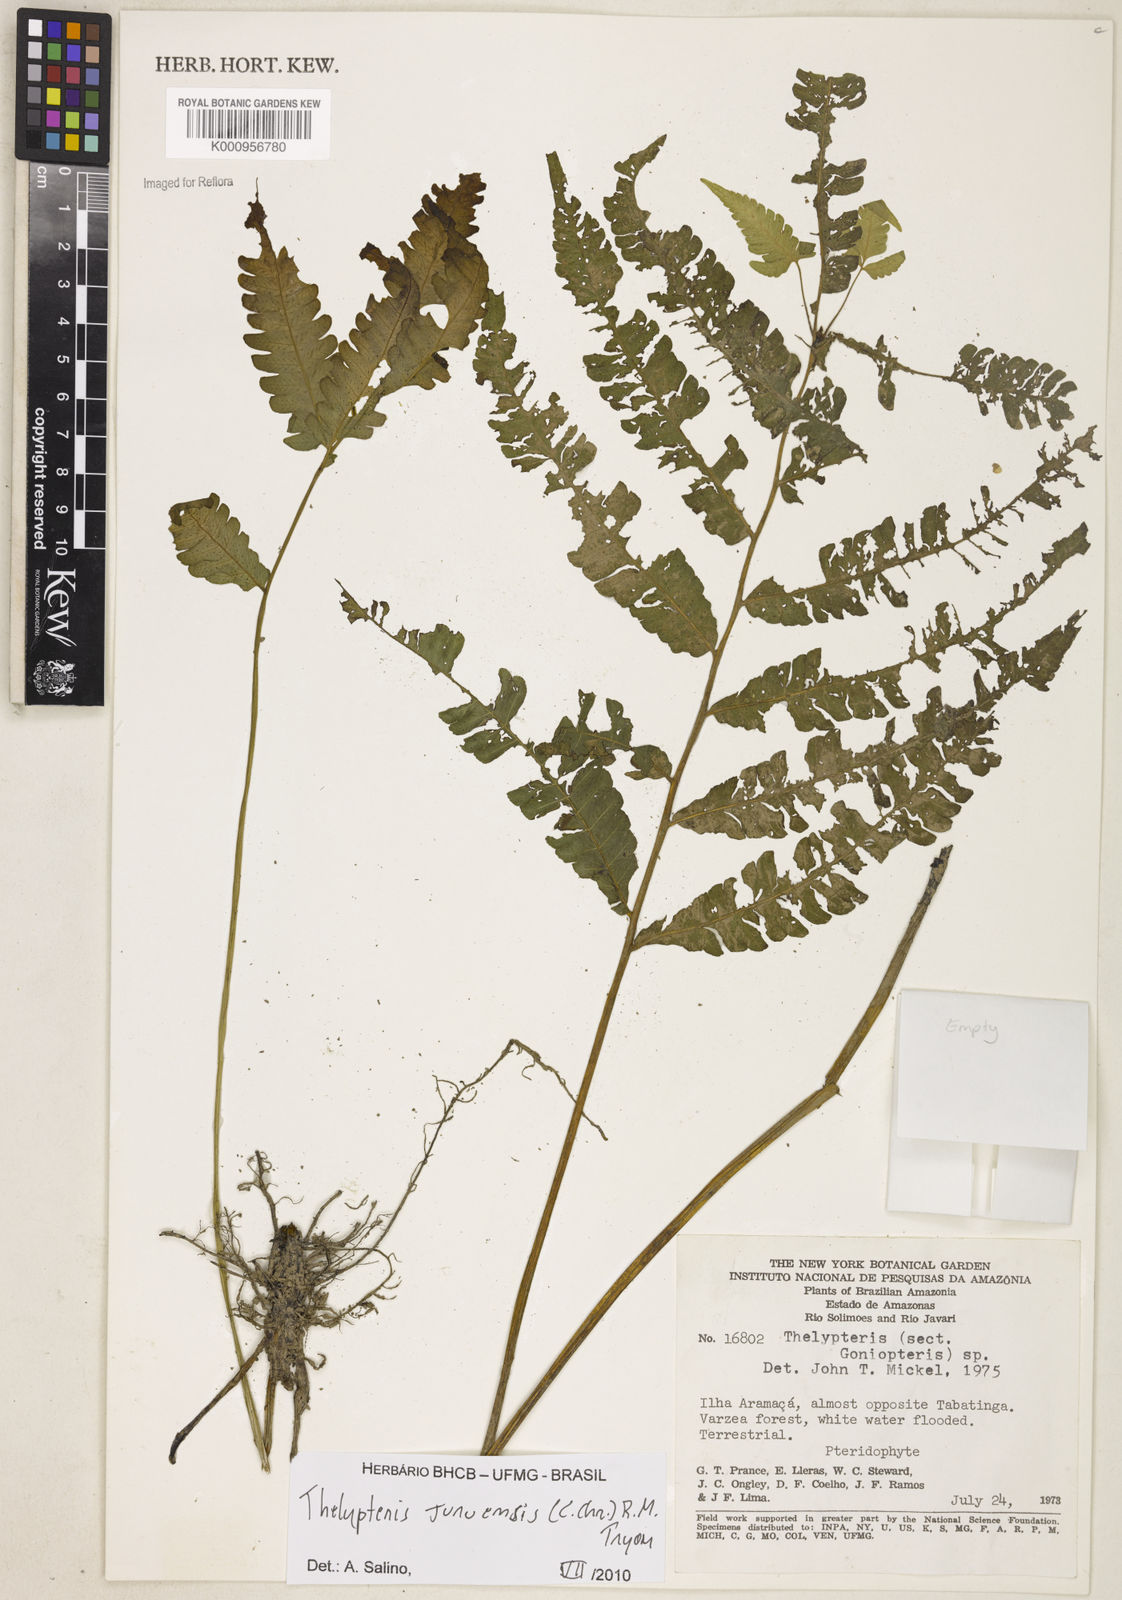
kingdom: Plantae
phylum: Tracheophyta
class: Polypodiopsida
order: Polypodiales
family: Thelypteridaceae
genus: Goniopteris
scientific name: Goniopteris juruensis
